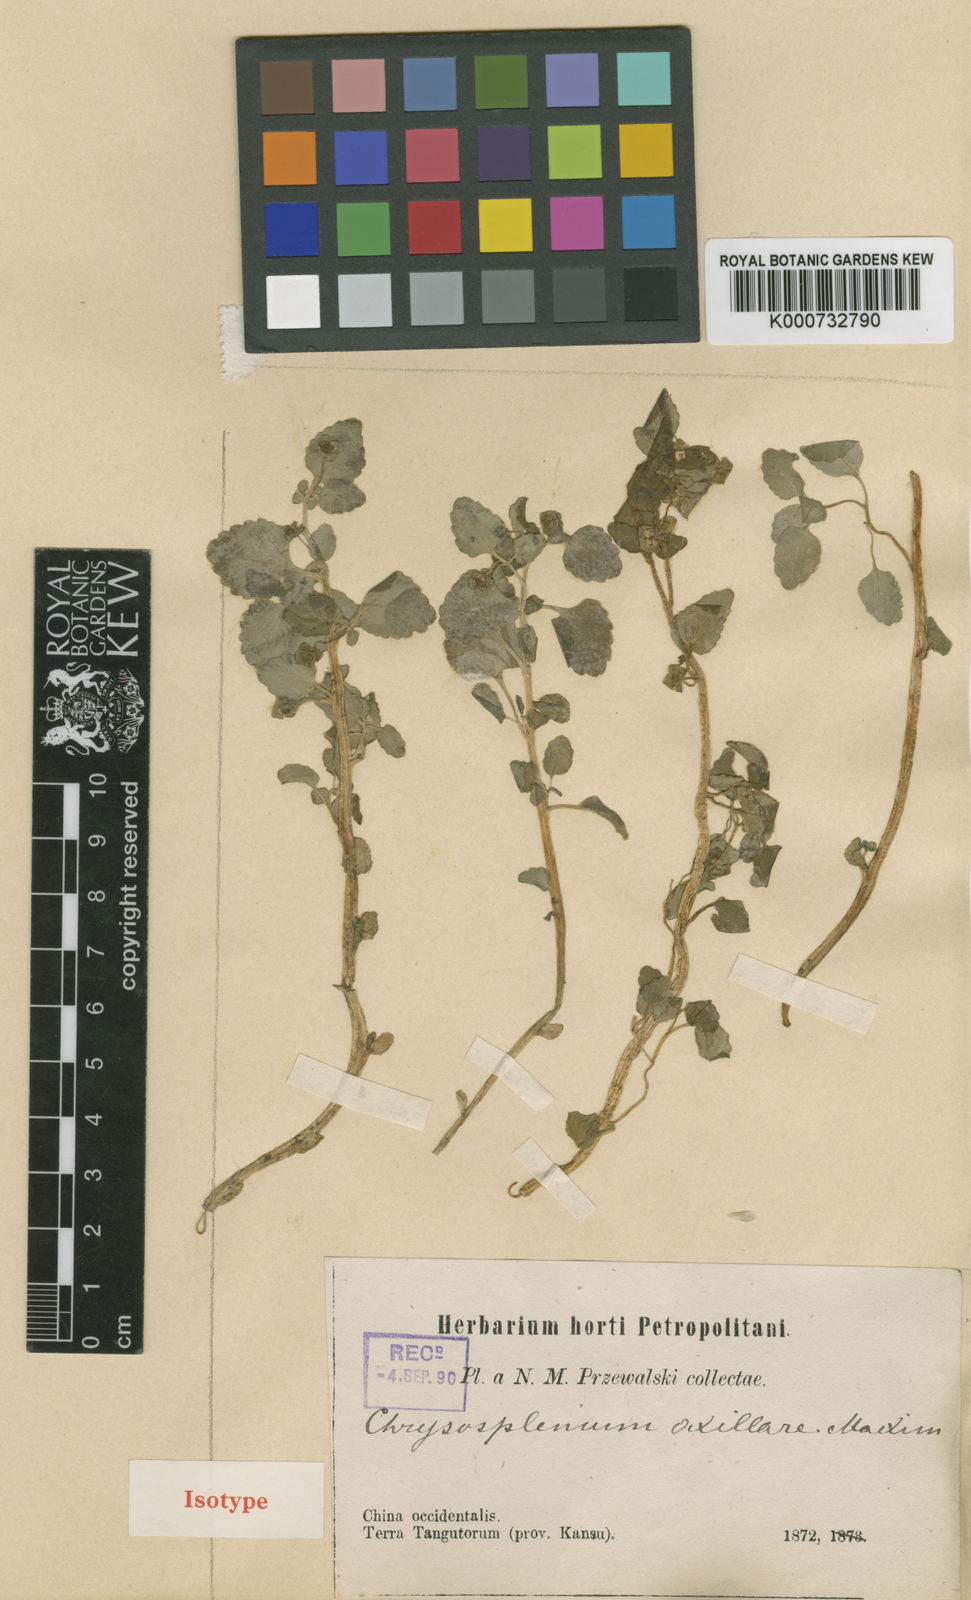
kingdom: Plantae
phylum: Tracheophyta
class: Magnoliopsida
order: Saxifragales
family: Saxifragaceae
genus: Chrysosplenium
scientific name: Chrysosplenium axillare
